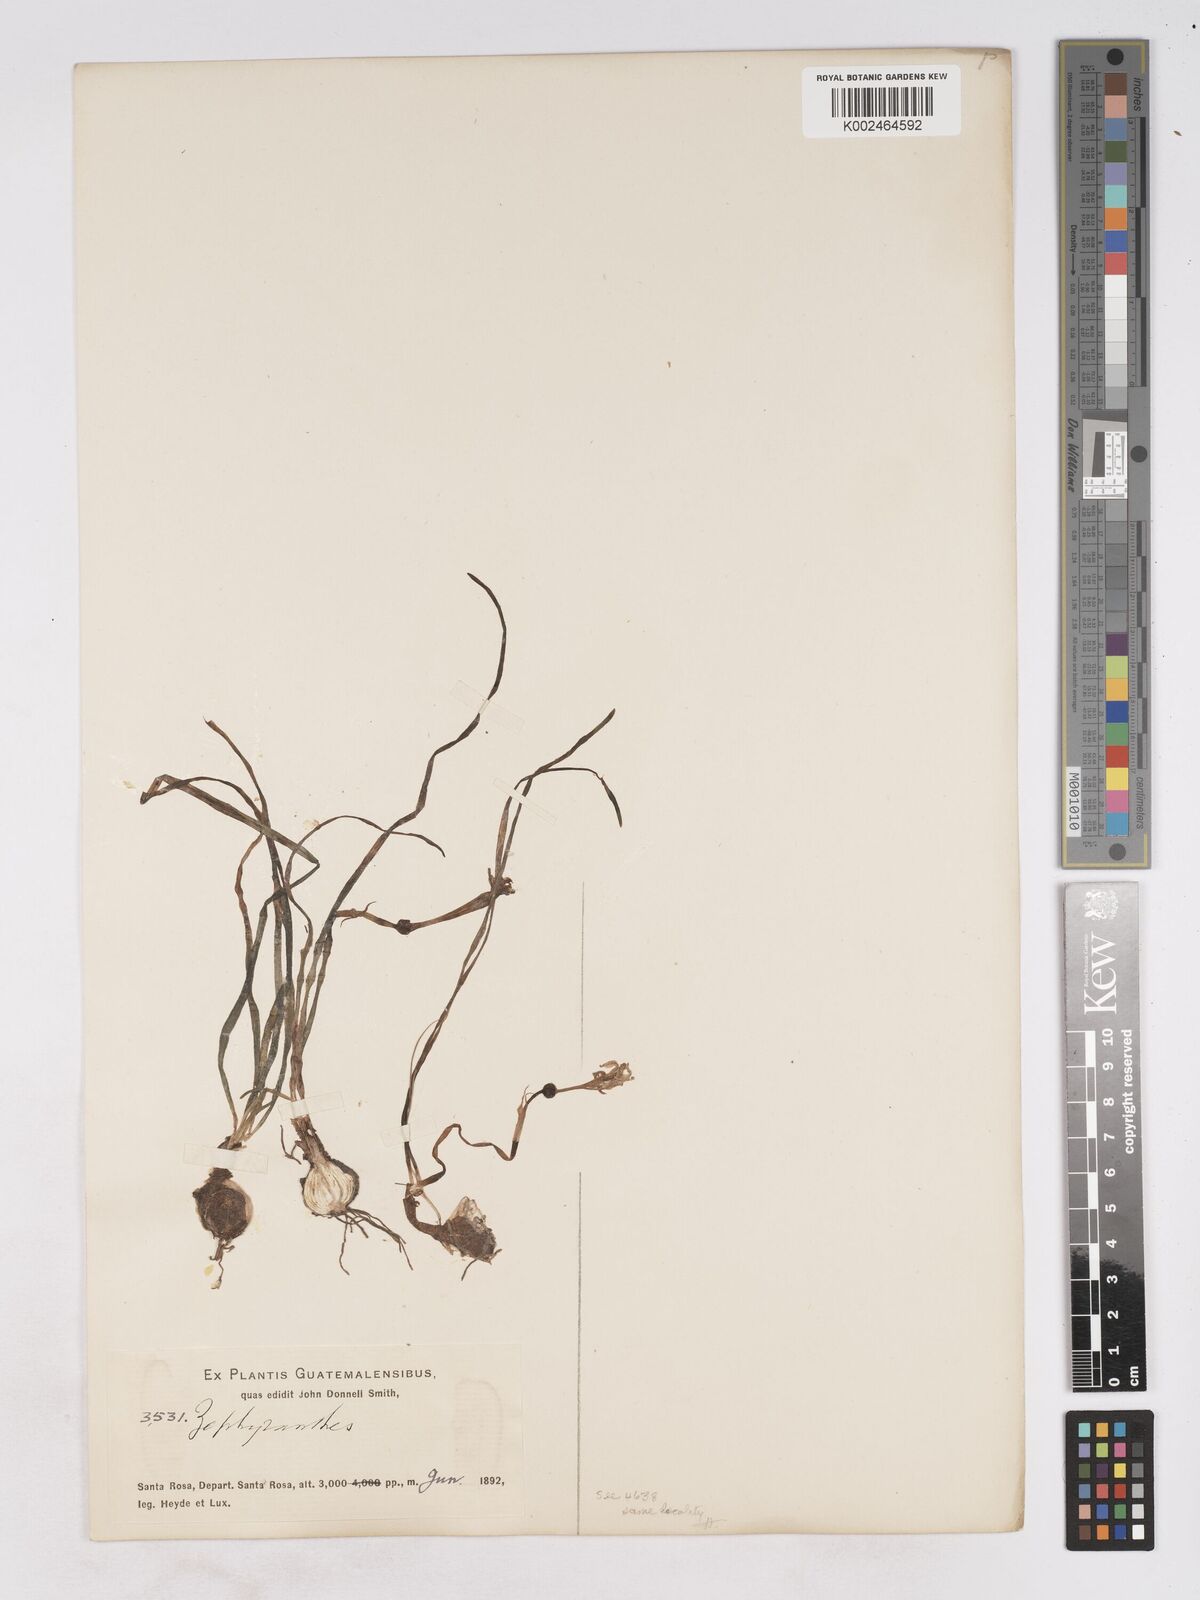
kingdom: Plantae
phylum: Tracheophyta
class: Liliopsida
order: Asparagales
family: Amaryllidaceae
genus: Zephyranthes
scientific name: Zephyranthes lindleyana
